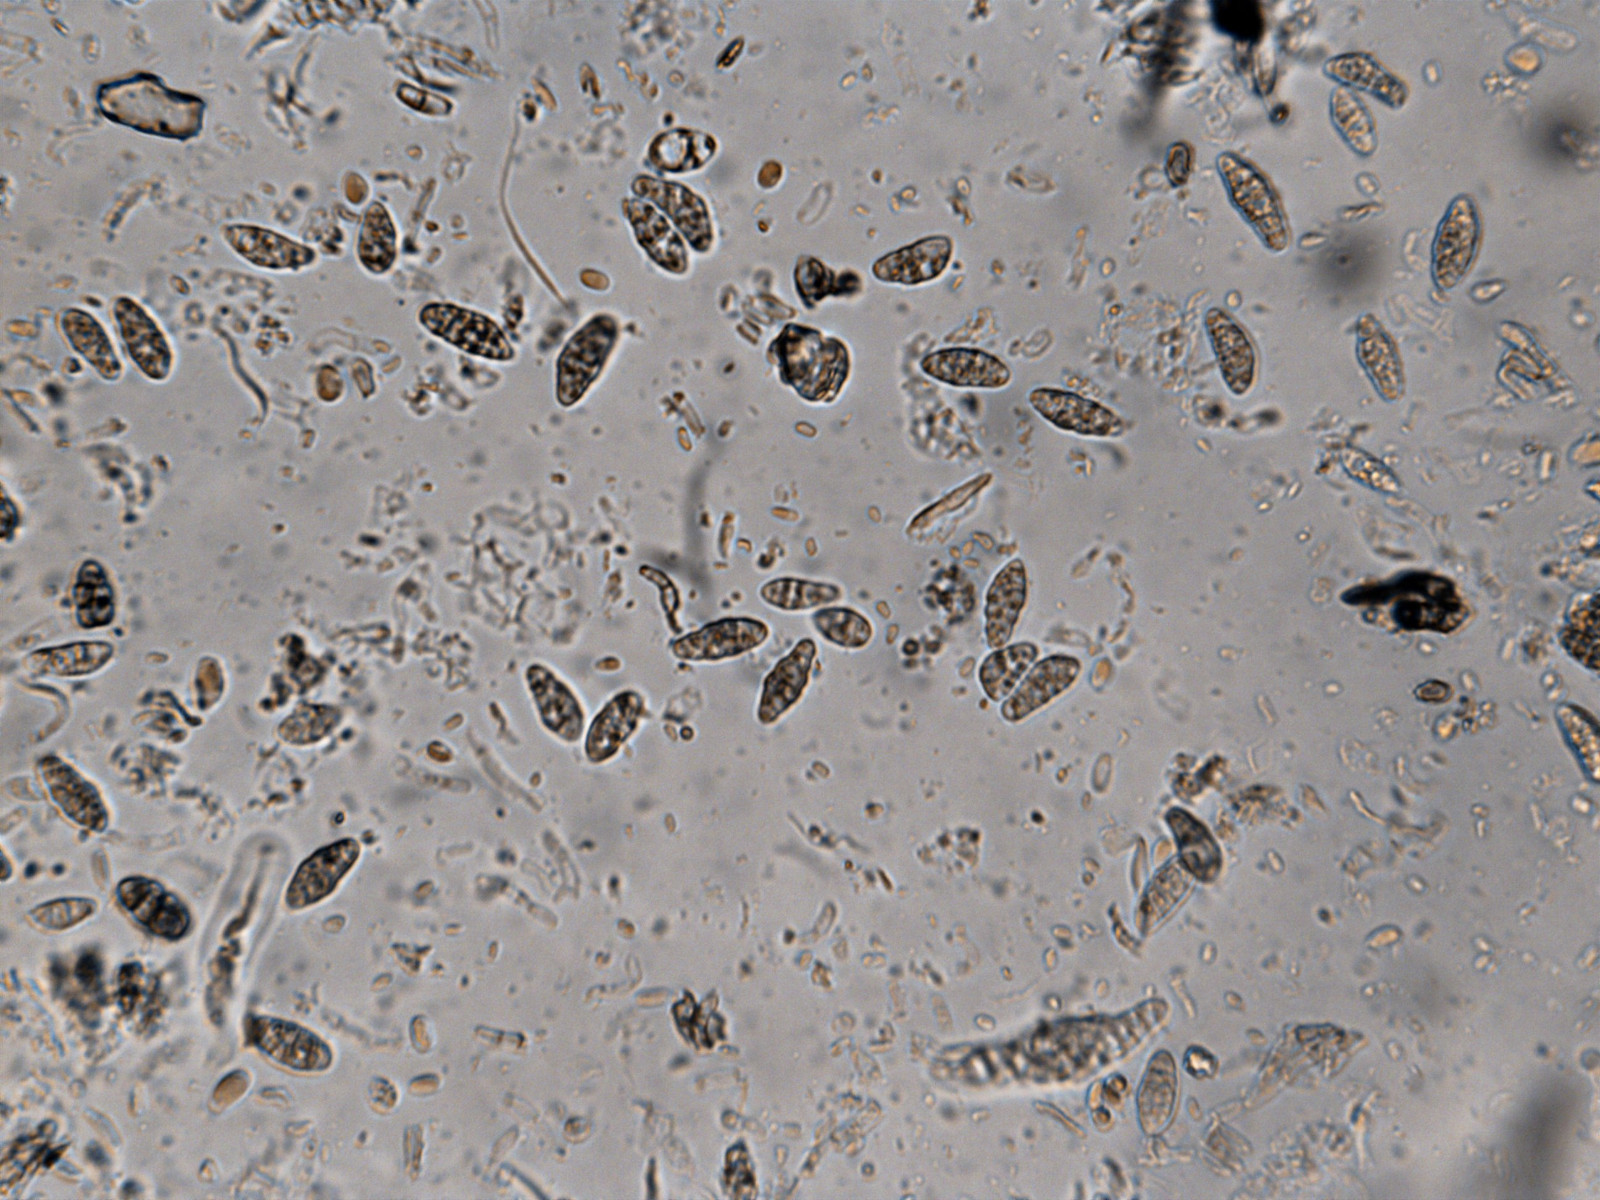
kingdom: Fungi
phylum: Ascomycota
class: Eurotiomycetes
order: Chaetothyriales
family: Herpotrichiellaceae
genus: Capronia
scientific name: Capronia nigerrima
